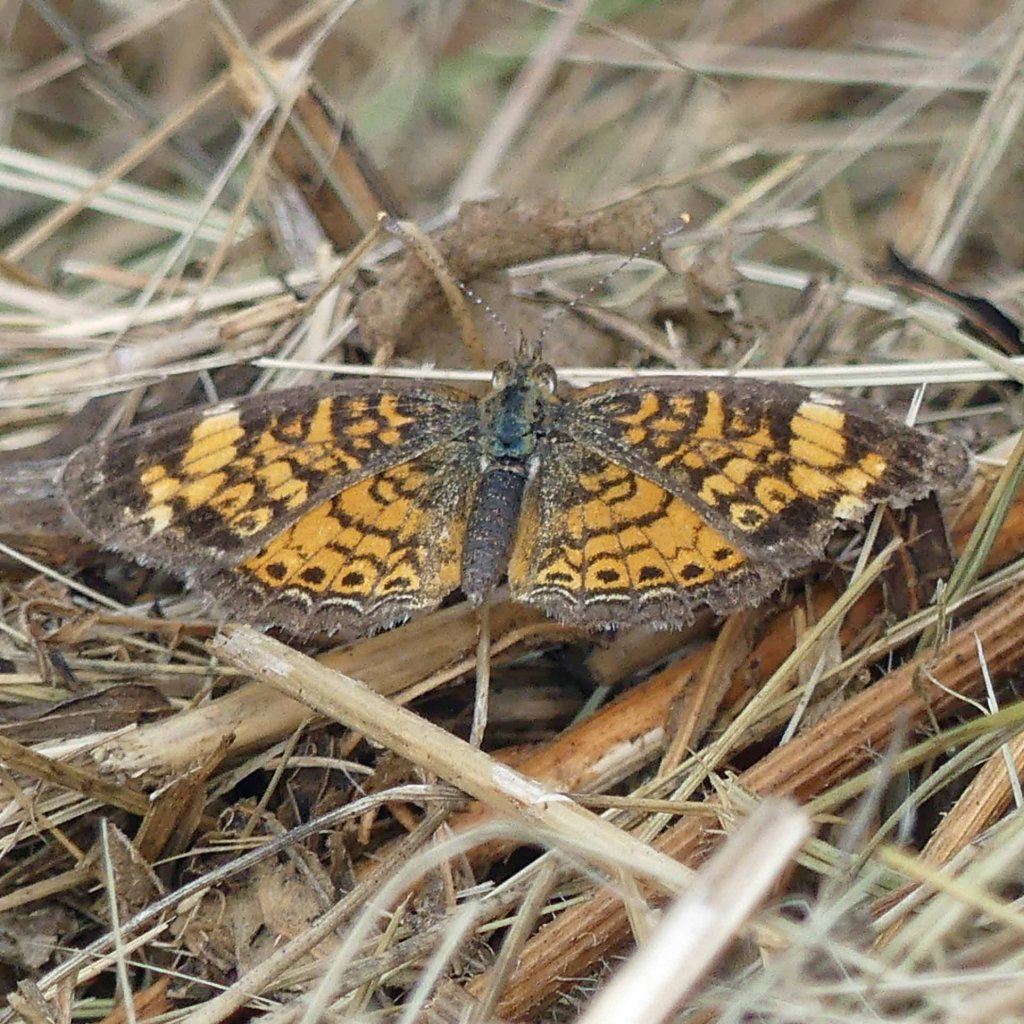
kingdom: Animalia
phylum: Arthropoda
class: Insecta
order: Lepidoptera
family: Nymphalidae
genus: Phyciodes
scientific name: Phyciodes tharos
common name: Northern Crescent
